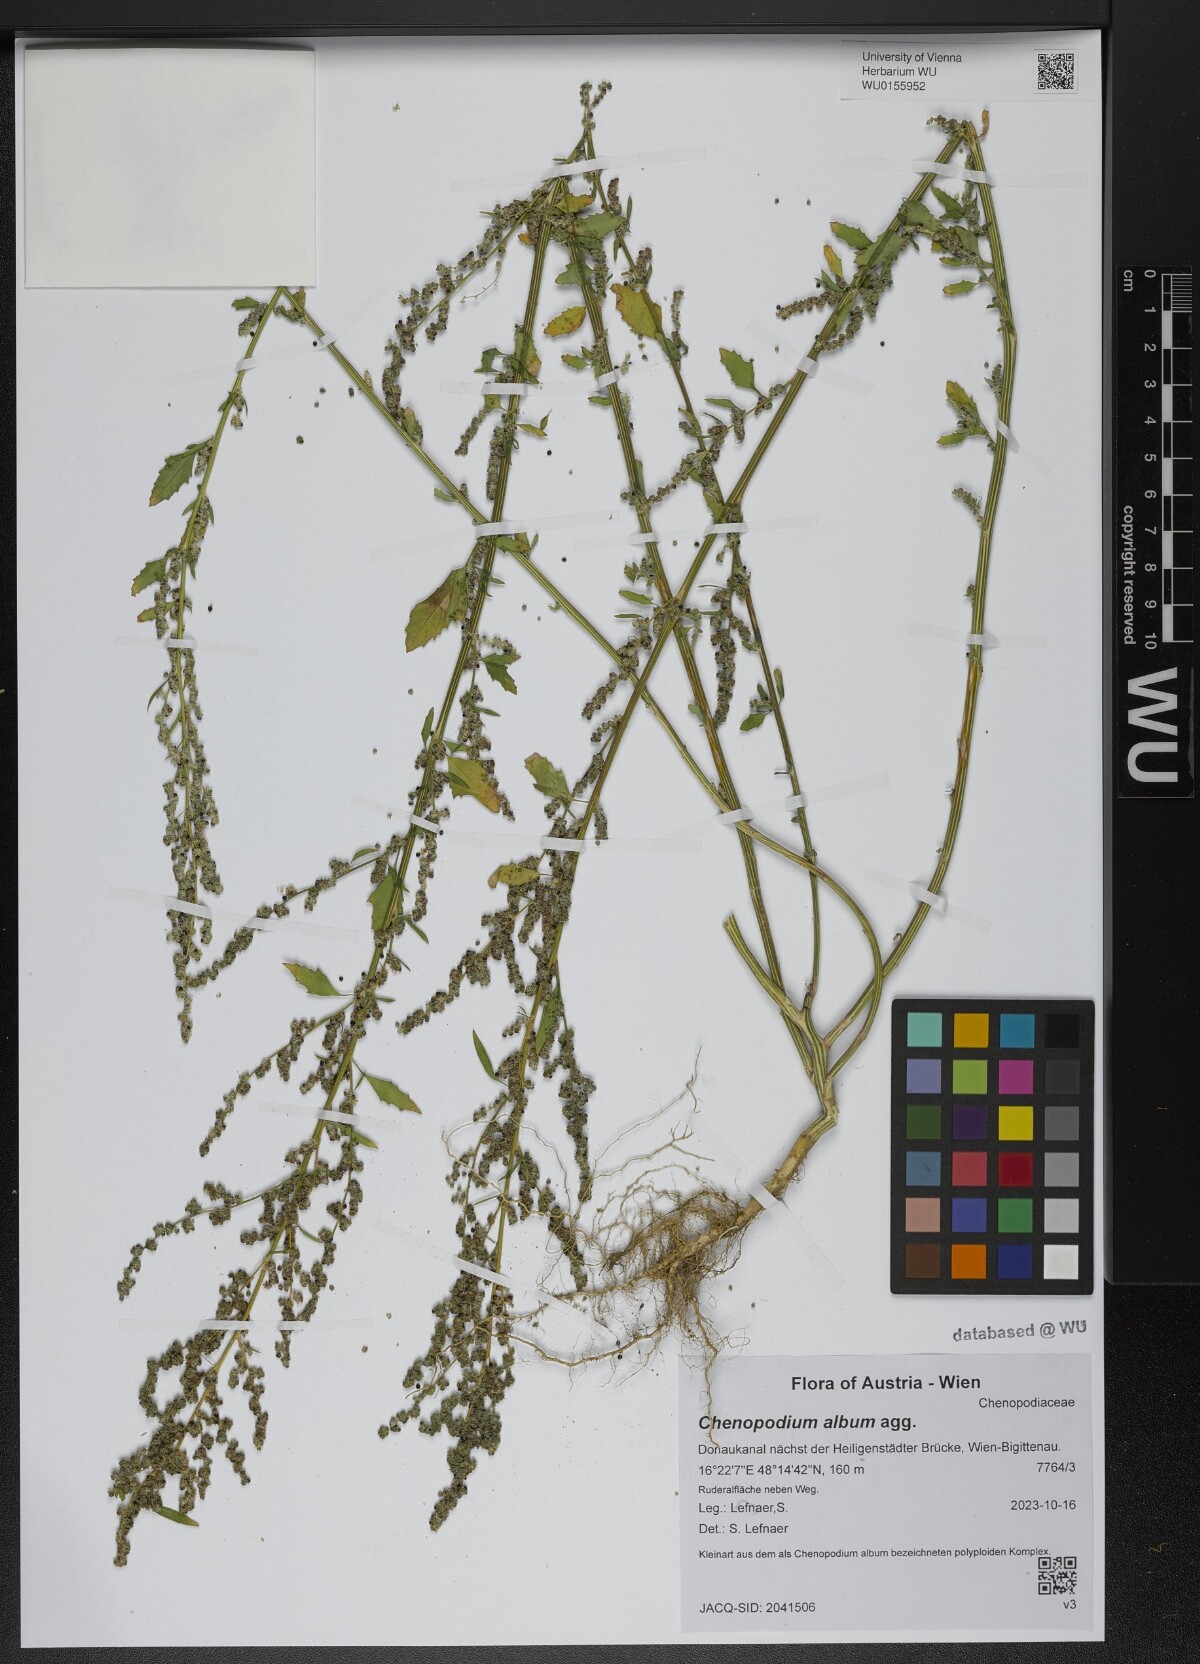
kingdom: Plantae
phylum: Tracheophyta
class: Magnoliopsida
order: Caryophyllales
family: Amaranthaceae
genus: Chenopodium
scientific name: Chenopodium album
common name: Fat-hen
